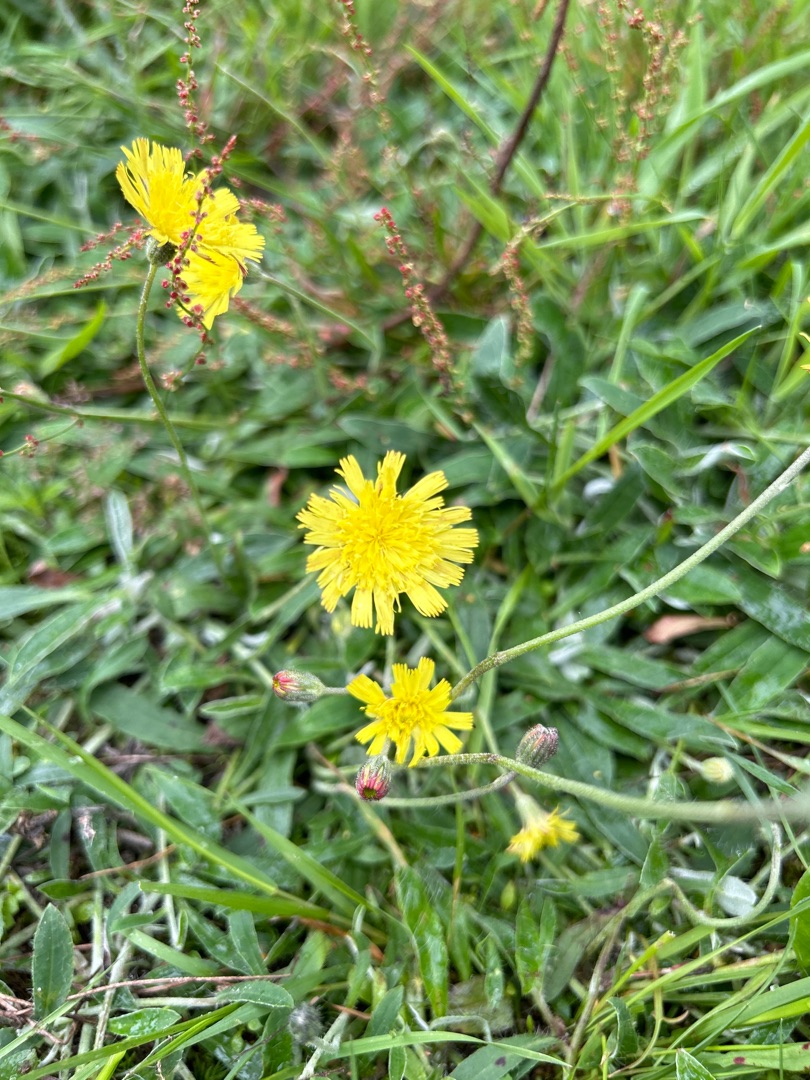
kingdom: Plantae
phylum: Tracheophyta
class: Magnoliopsida
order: Asterales
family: Asteraceae
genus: Pilosella
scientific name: Pilosella officinarum
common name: Håret høgeurt
